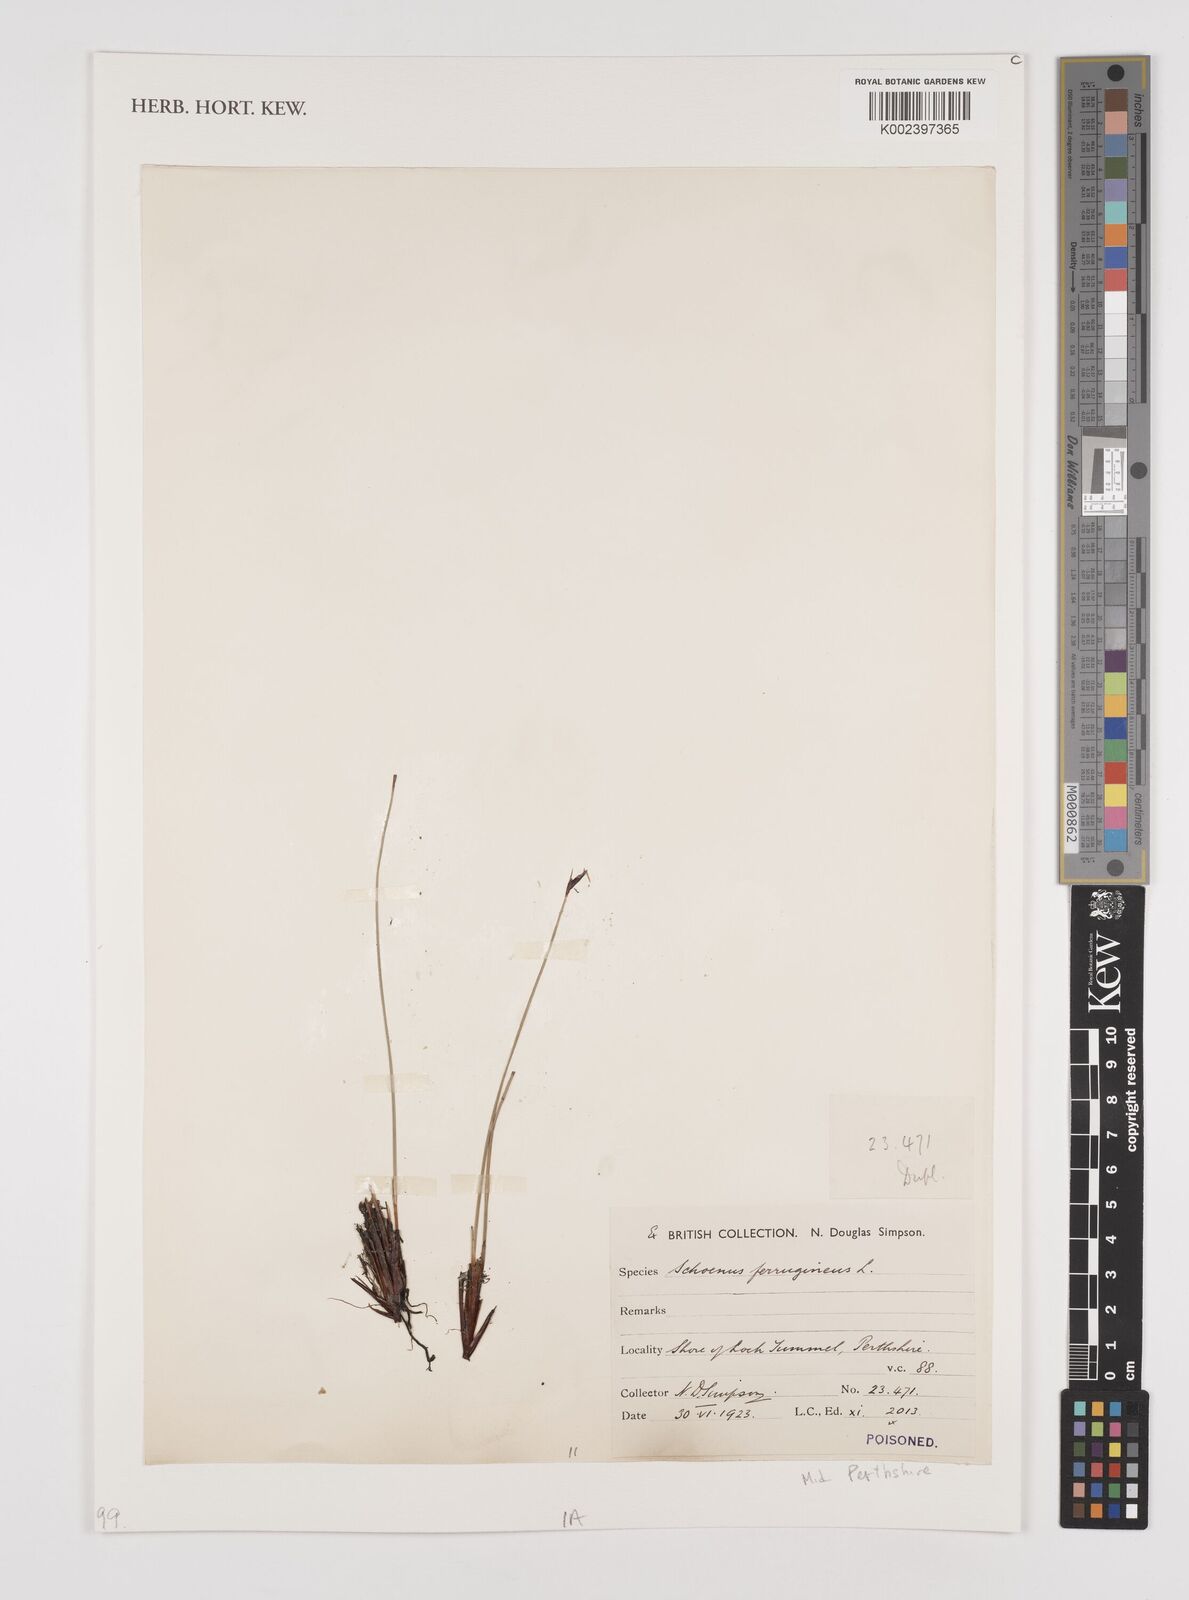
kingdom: Plantae
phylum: Tracheophyta
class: Liliopsida
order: Poales
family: Cyperaceae
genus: Schoenus
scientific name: Schoenus ferrugineus
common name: Brown bog-rush
